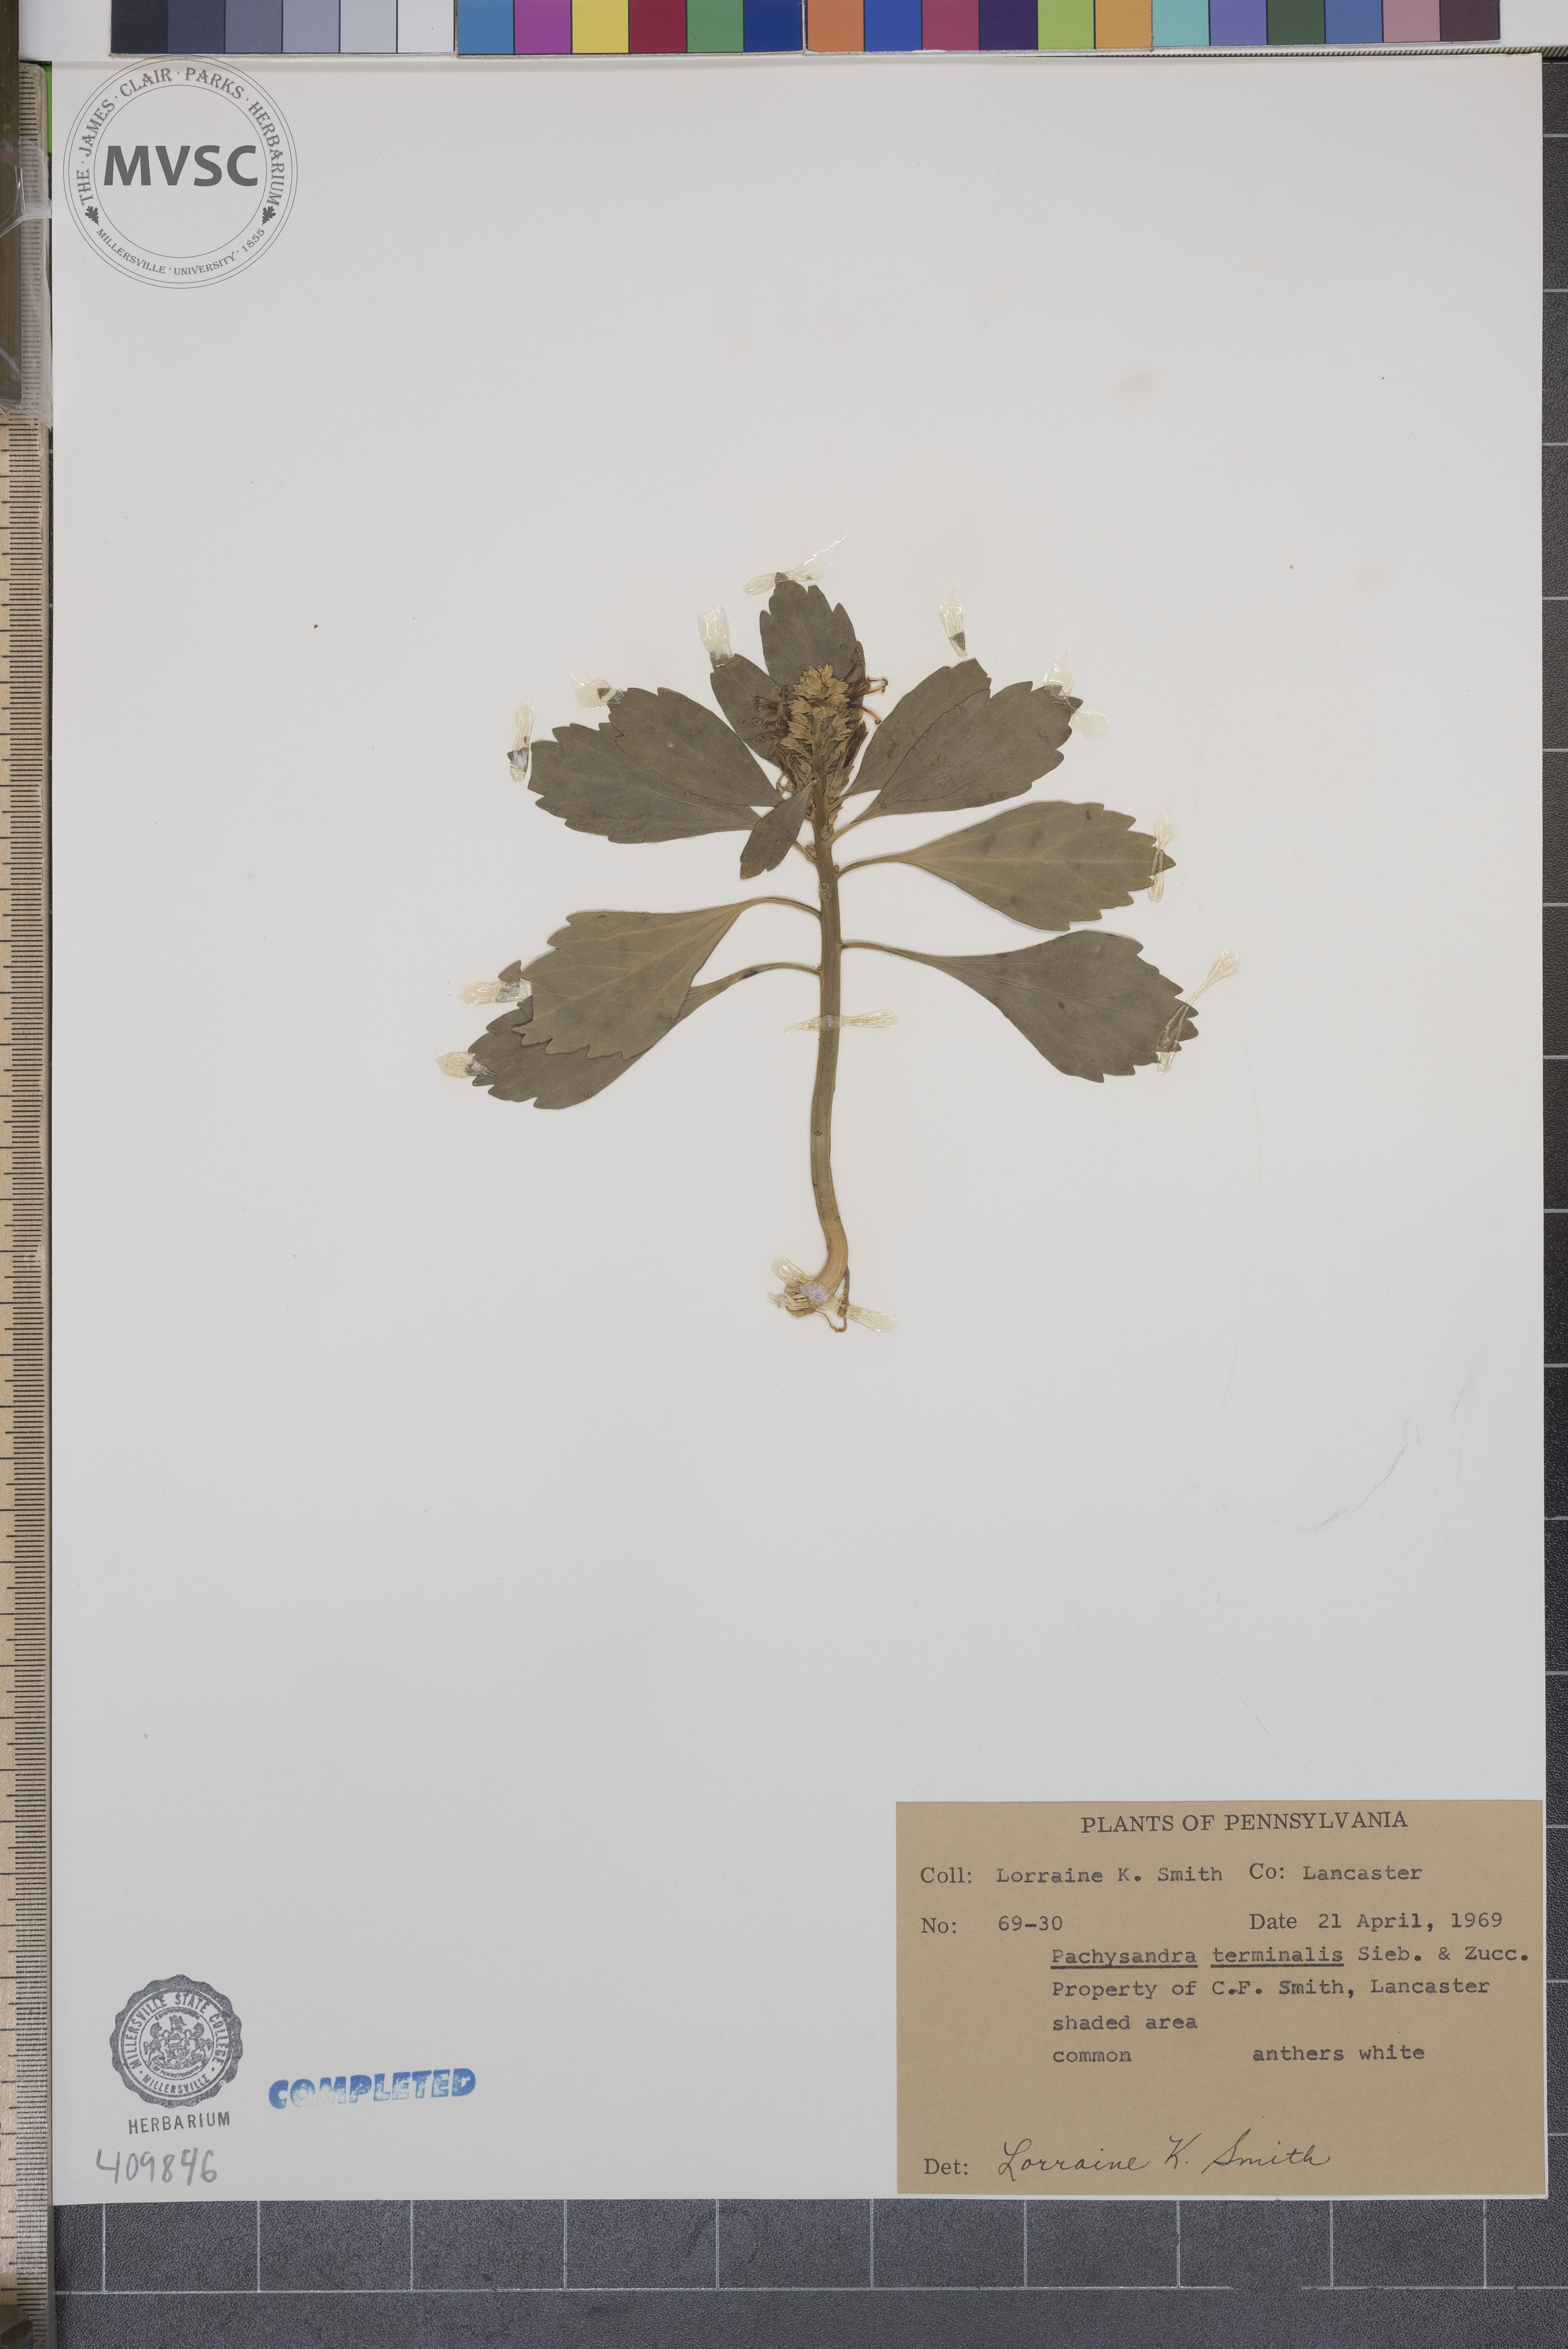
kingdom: Plantae
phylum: Tracheophyta
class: Magnoliopsida
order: Buxales
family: Buxaceae
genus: Pachysandra
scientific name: Pachysandra terminalis
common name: Japanese Pachysandra
